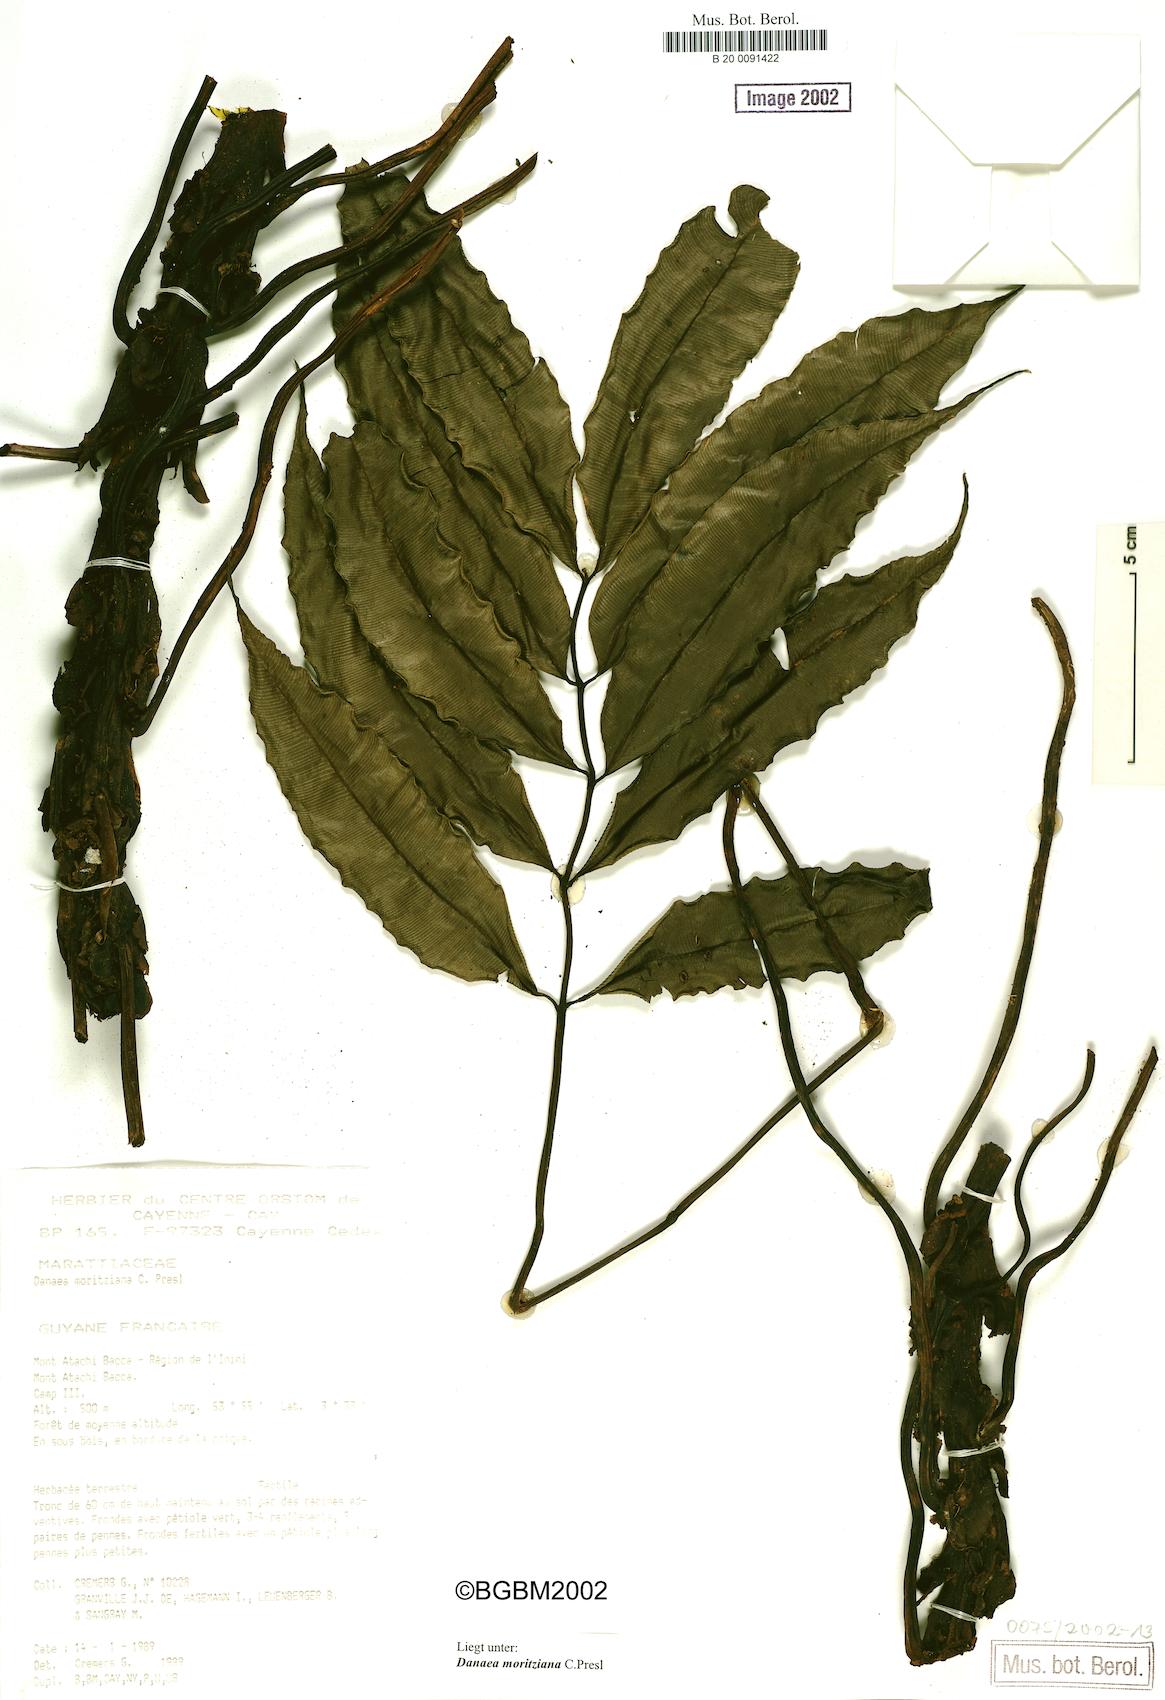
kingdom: Plantae
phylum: Tracheophyta
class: Polypodiopsida
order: Marattiales
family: Marattiaceae
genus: Danaea
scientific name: Danaea moritziana
